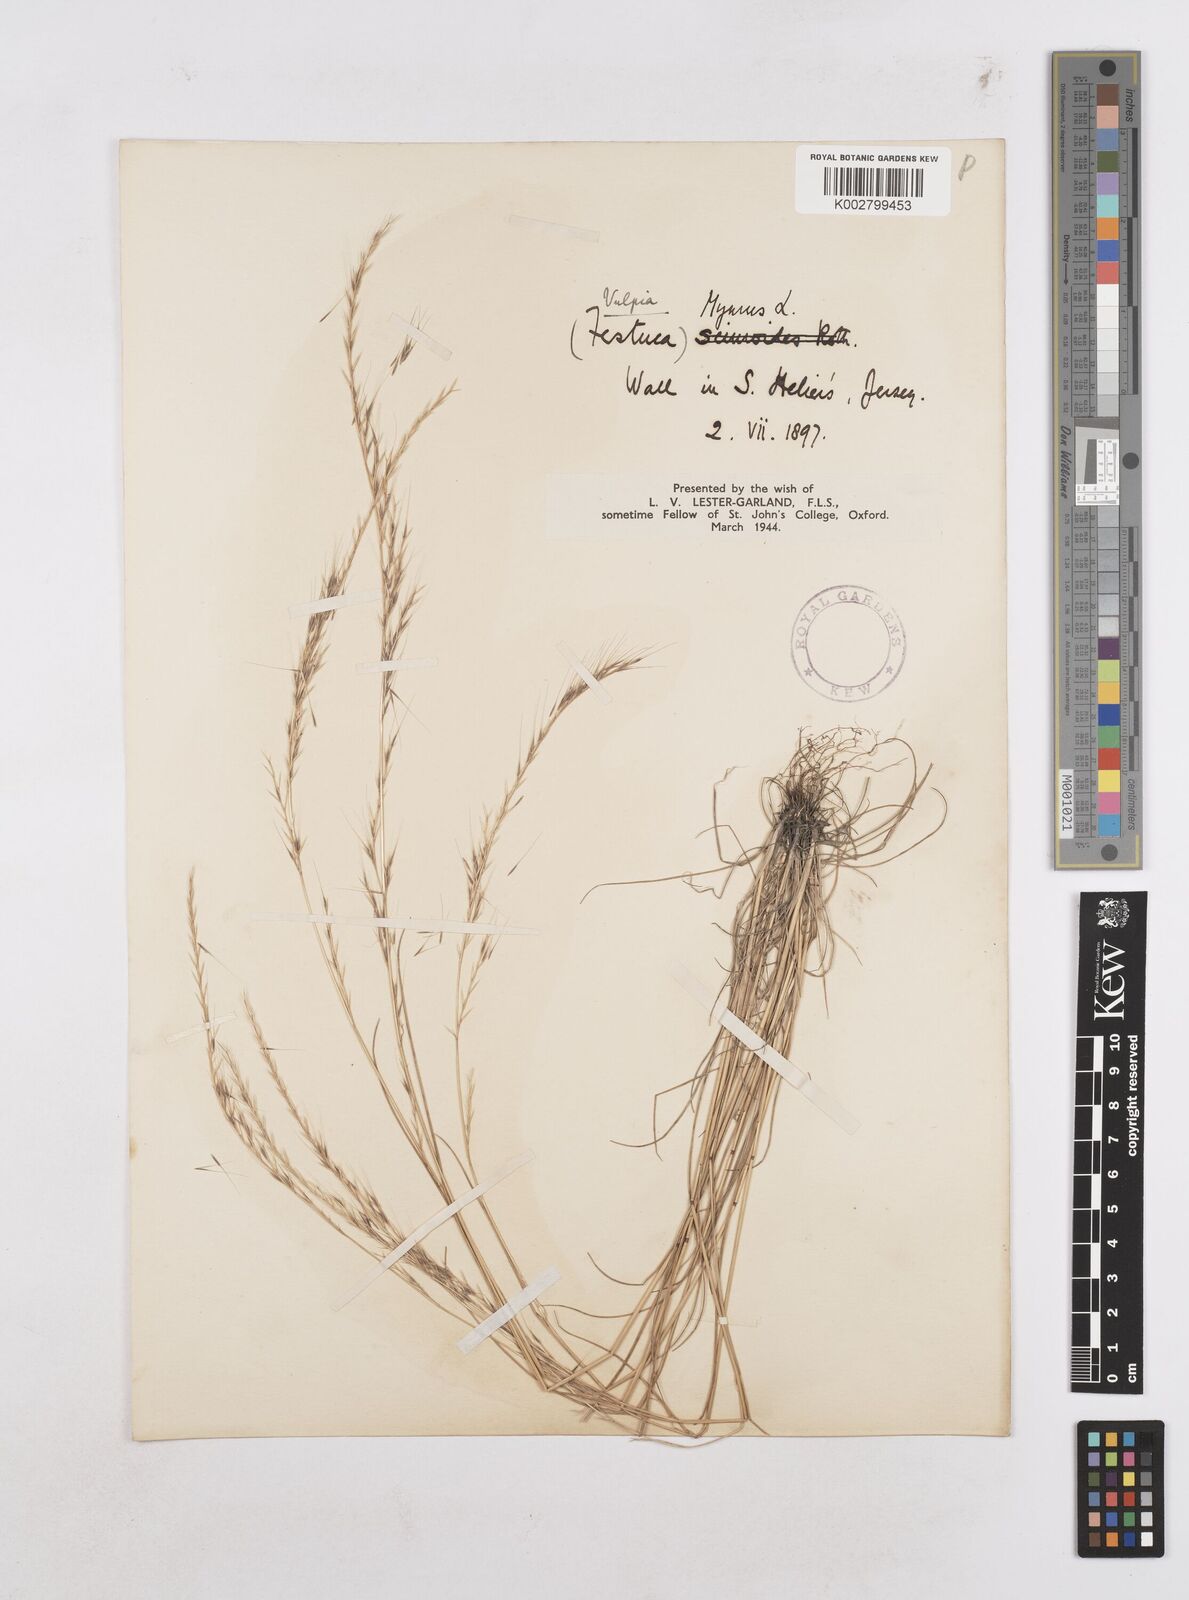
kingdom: Plantae
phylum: Tracheophyta
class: Liliopsida
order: Poales
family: Poaceae
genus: Festuca
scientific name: Festuca myuros
